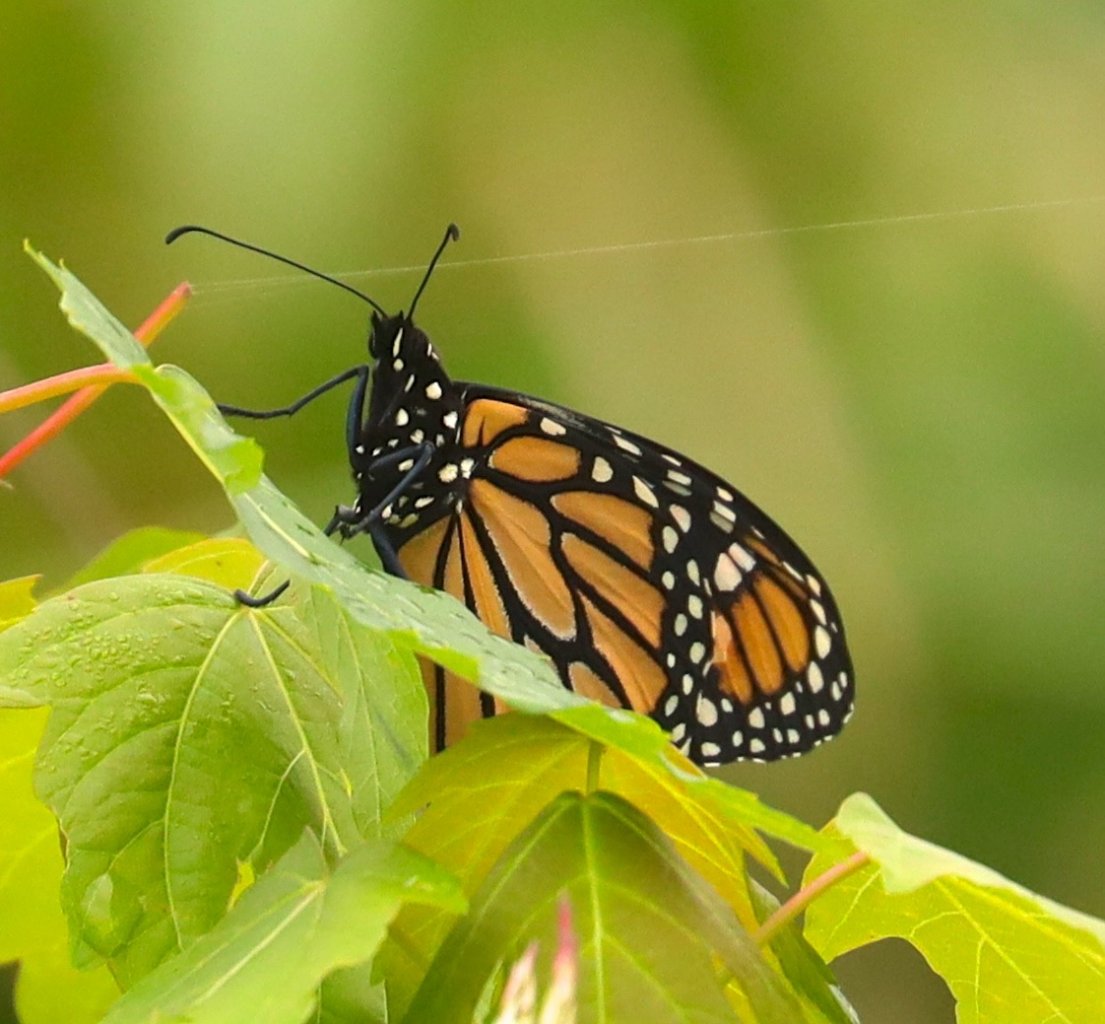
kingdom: Animalia
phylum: Arthropoda
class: Insecta
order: Lepidoptera
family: Nymphalidae
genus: Danaus
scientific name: Danaus plexippus
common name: Monarch
